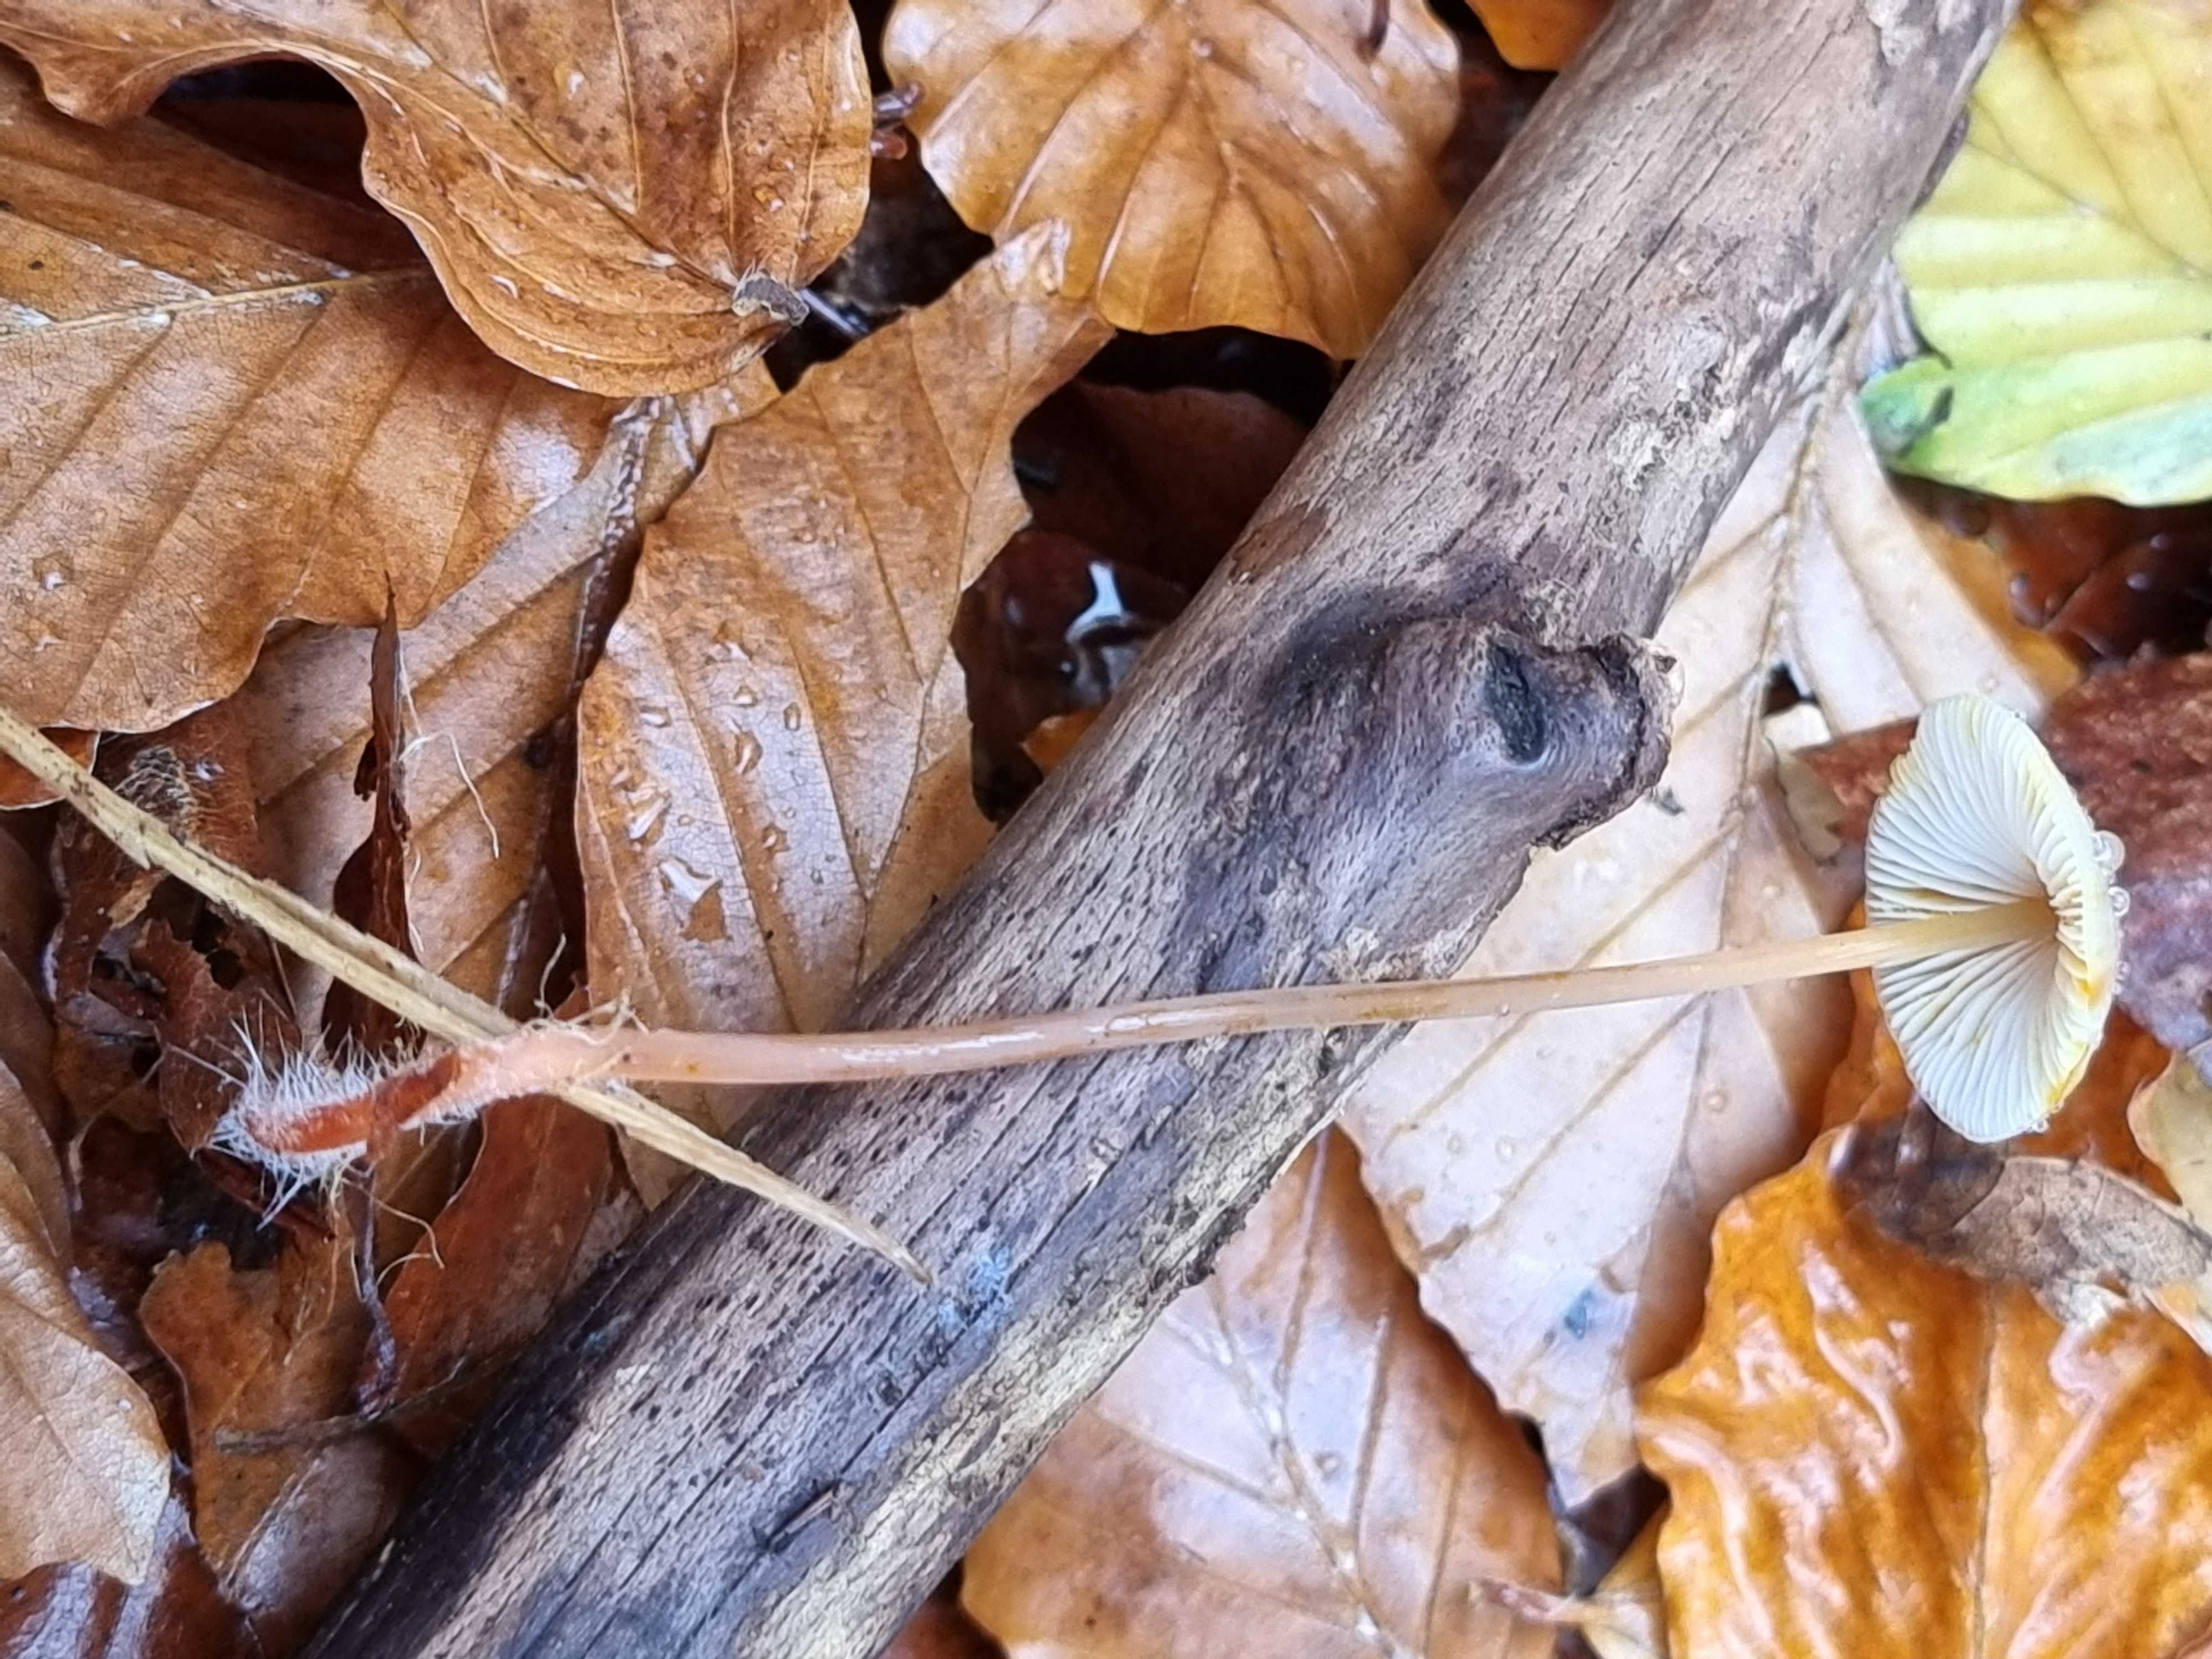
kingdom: Fungi
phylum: Basidiomycota
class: Agaricomycetes
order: Agaricales
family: Mycenaceae
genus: Mycena
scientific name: Mycena crocata
